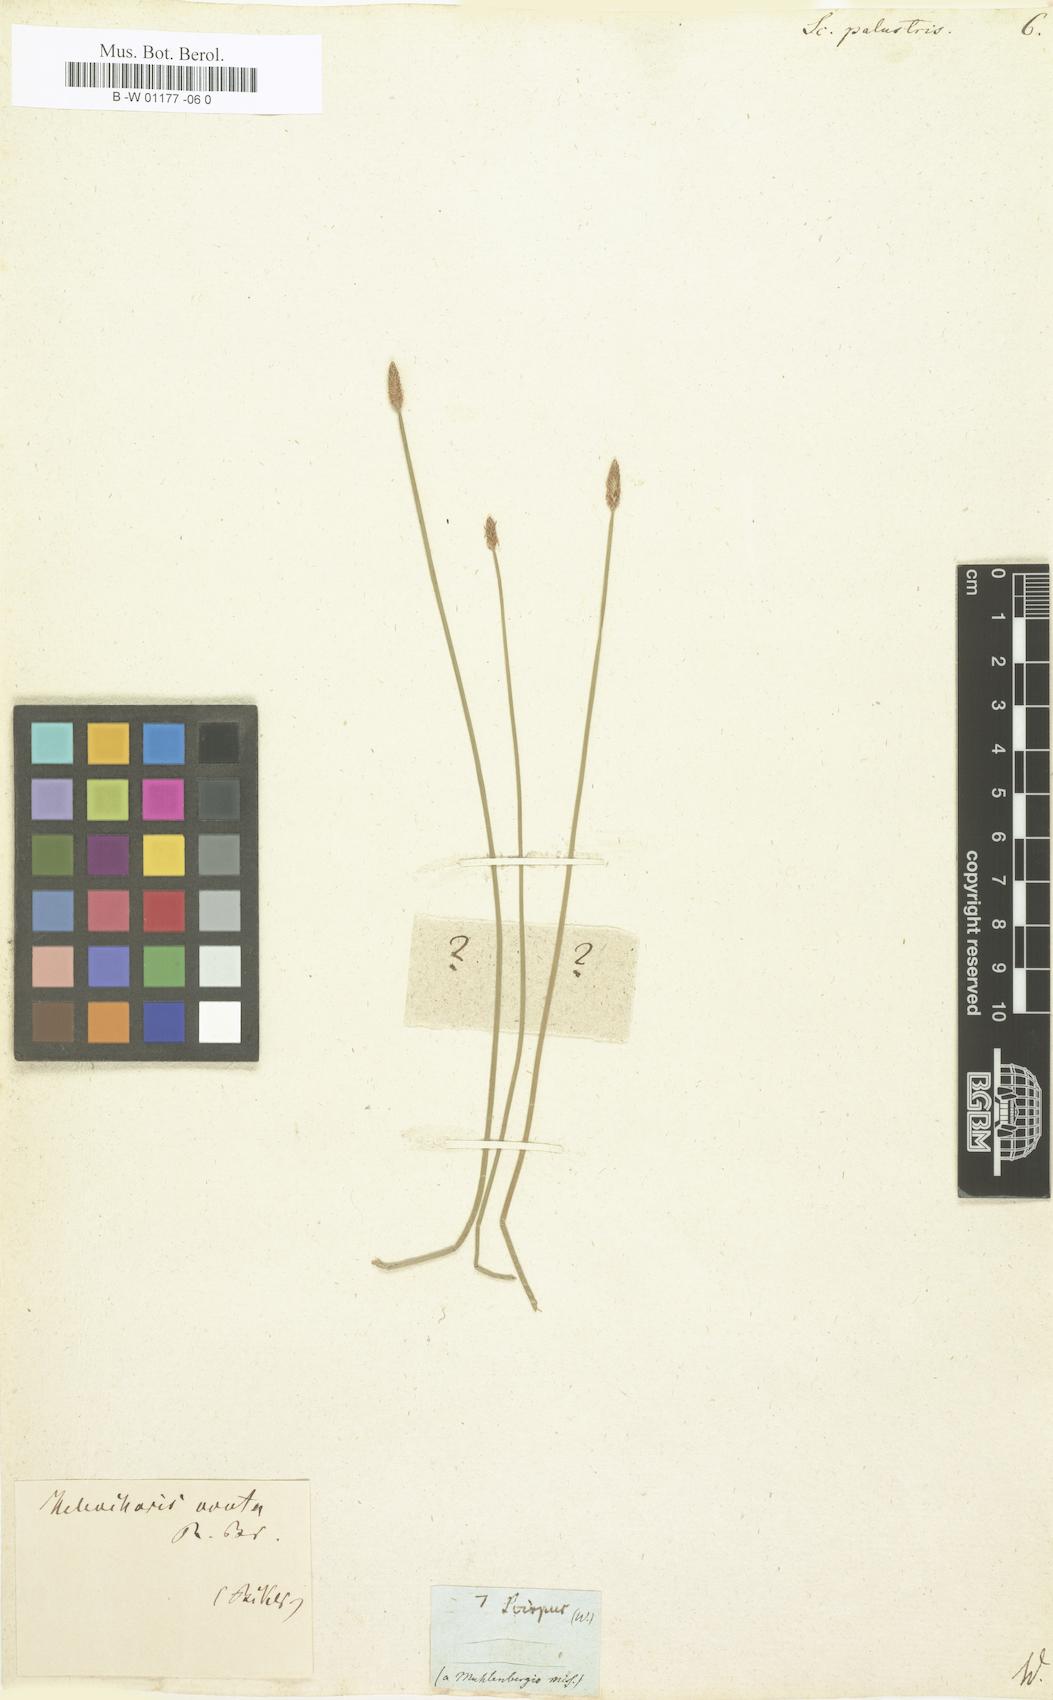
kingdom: Plantae
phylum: Tracheophyta
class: Liliopsida
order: Poales
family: Cyperaceae
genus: Eleocharis
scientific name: Eleocharis palustris
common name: Common spike-rush
